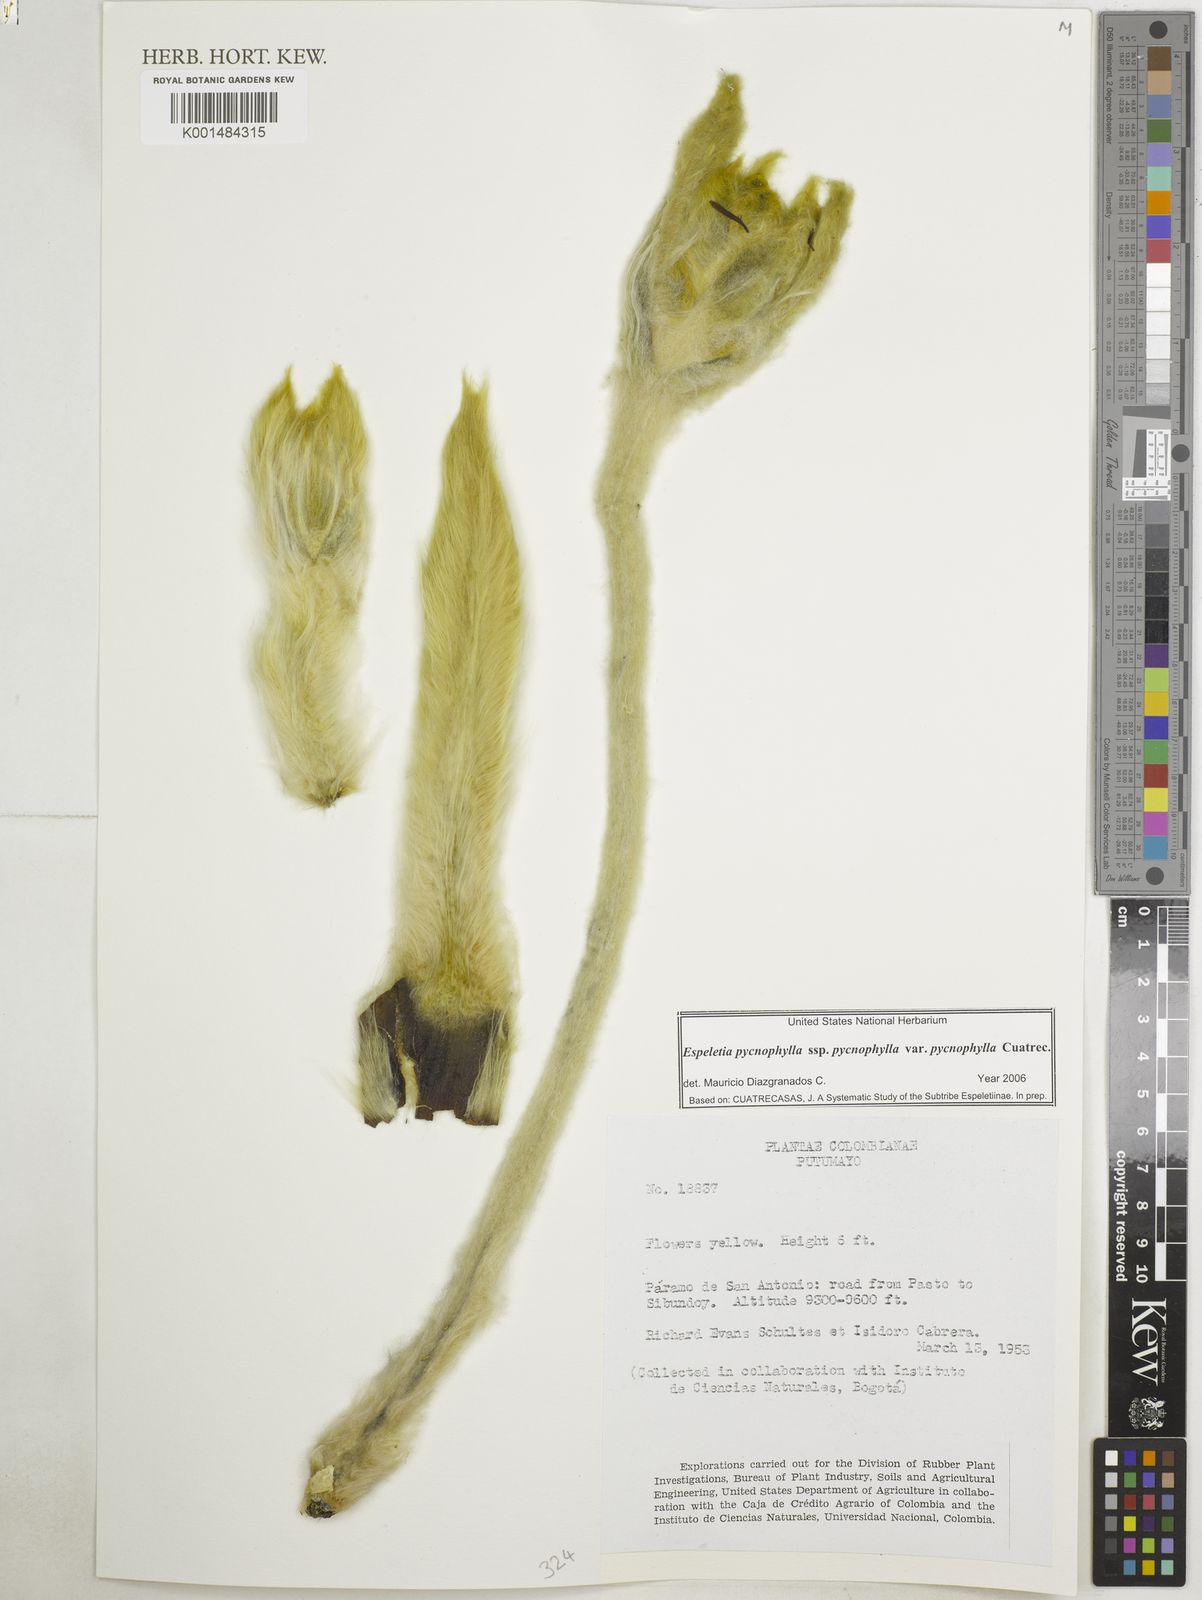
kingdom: Plantae
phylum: Tracheophyta
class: Magnoliopsida
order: Asterales
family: Asteraceae
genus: Espeletia
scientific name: Espeletia pycnophylla
